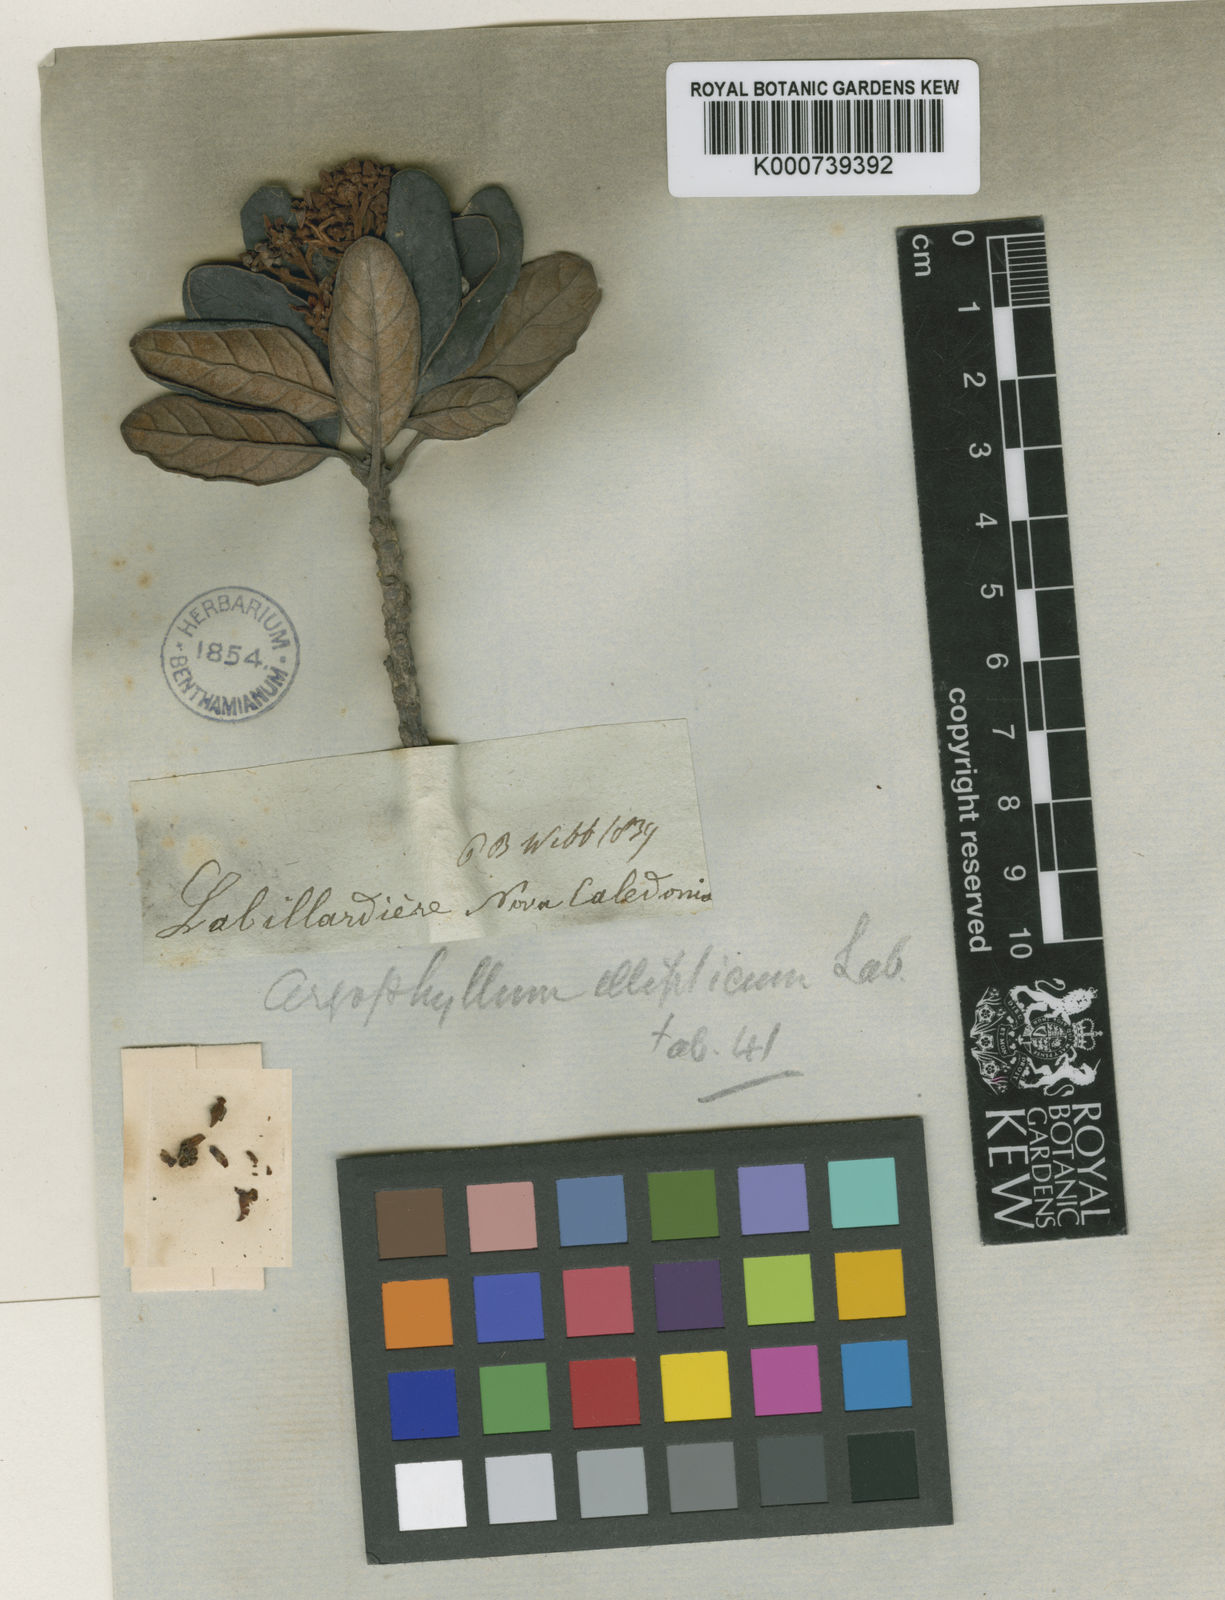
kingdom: Plantae
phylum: Tracheophyta
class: Magnoliopsida
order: Asterales
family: Argophyllaceae
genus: Argophyllum
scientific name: Argophyllum ellipticum
